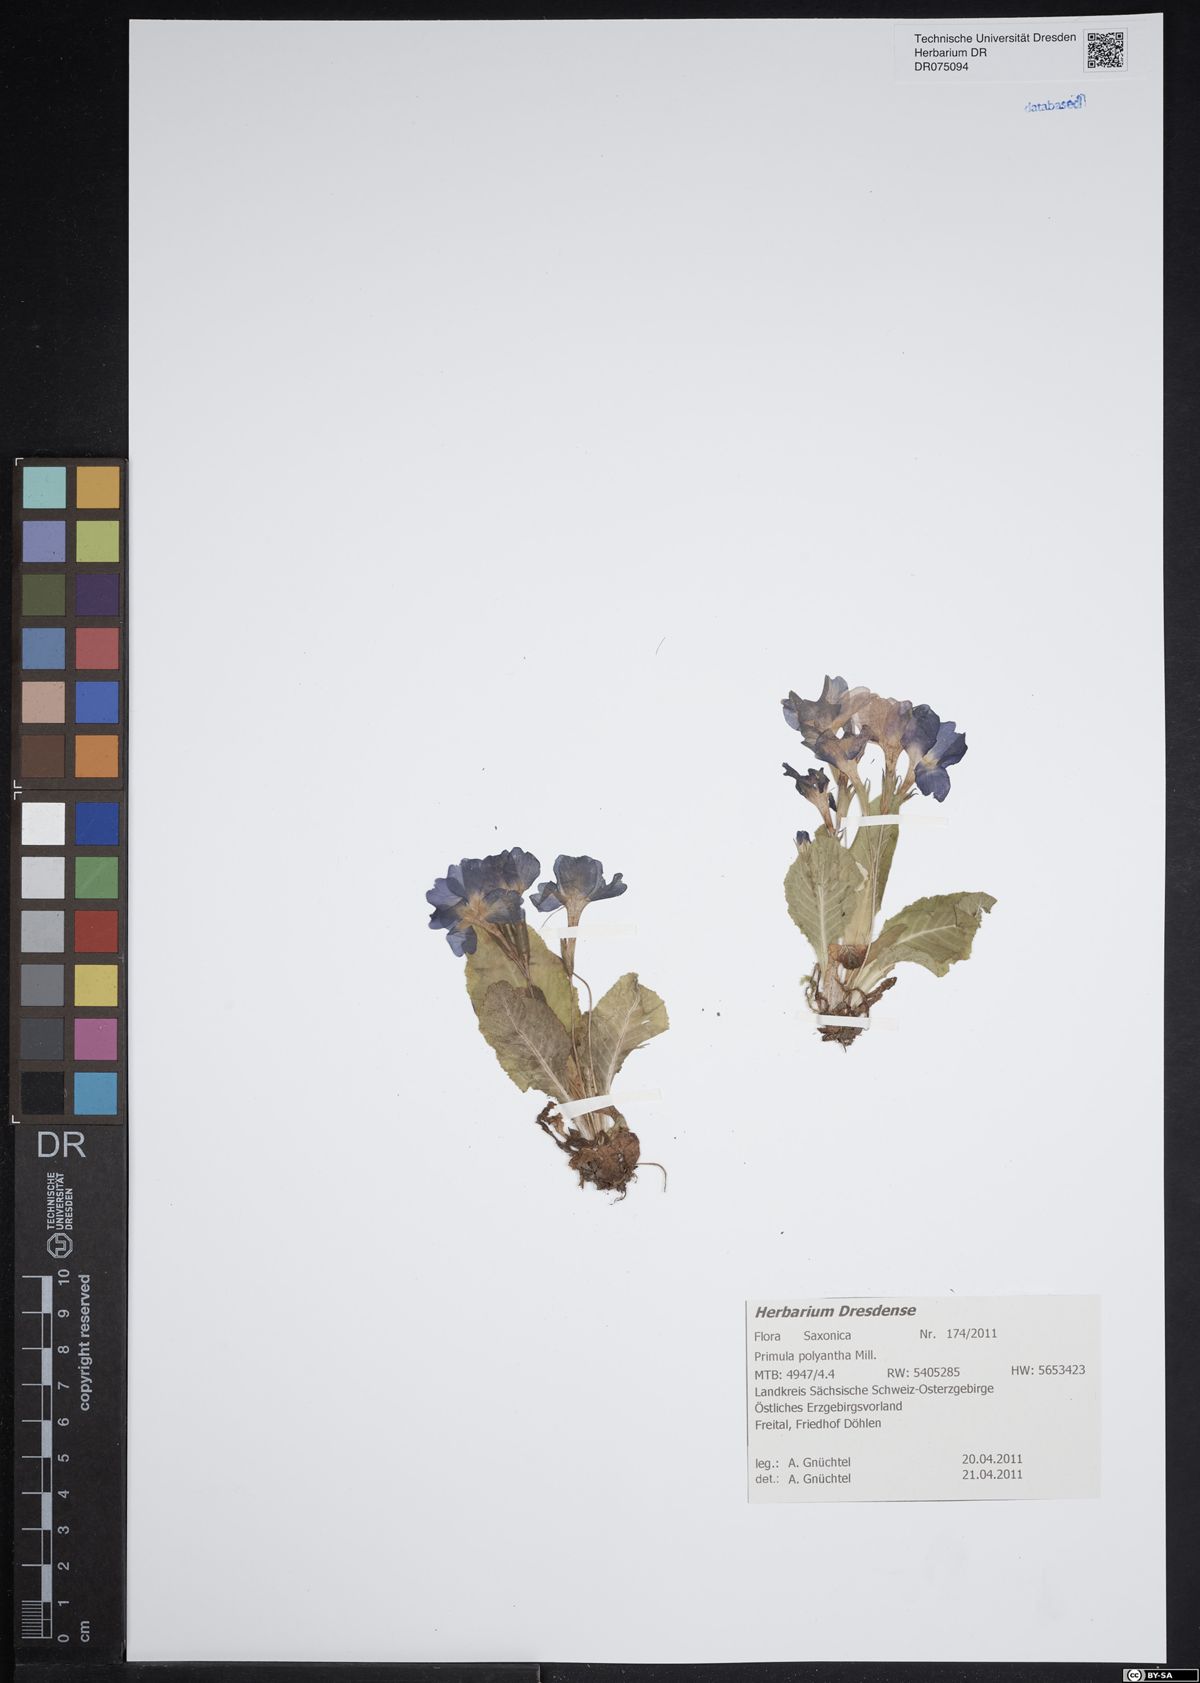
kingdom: Plantae
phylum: Tracheophyta
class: Magnoliopsida
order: Ericales
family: Primulaceae
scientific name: Primulaceae
